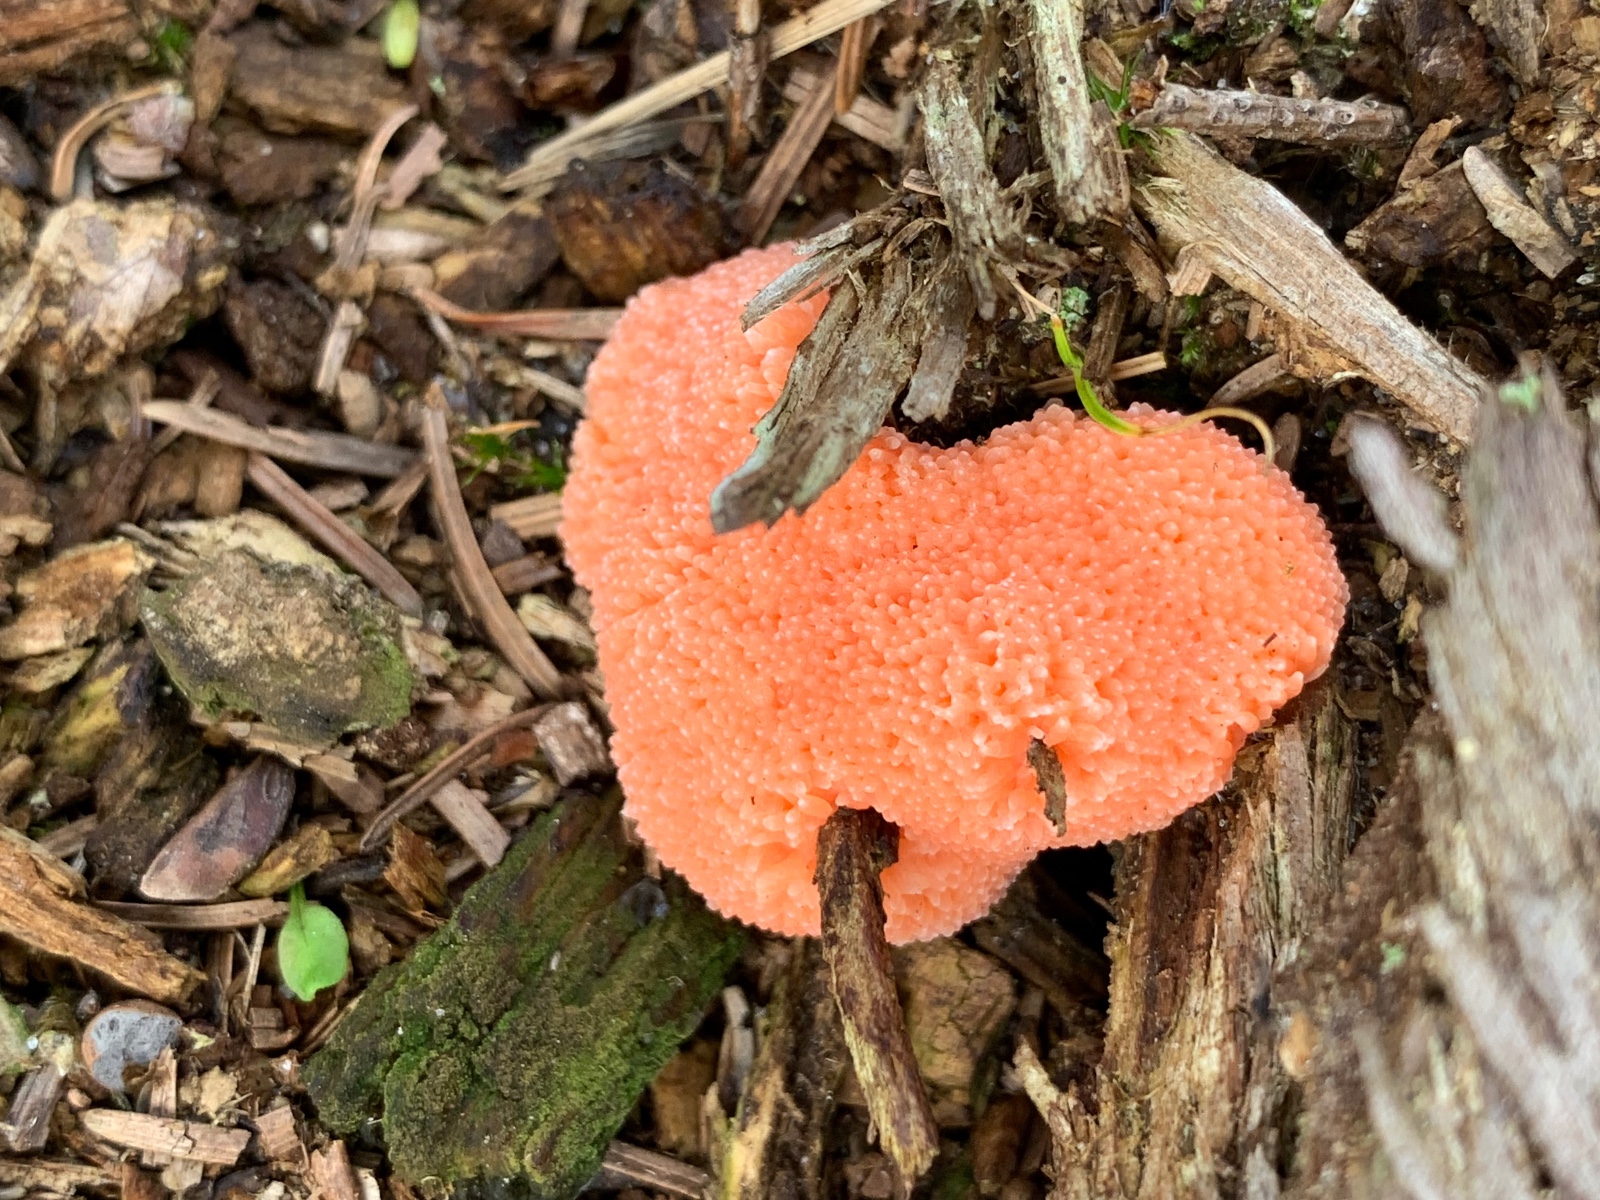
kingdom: Protozoa
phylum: Mycetozoa
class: Myxomycetes
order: Cribrariales
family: Tubiferaceae
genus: Tubifera
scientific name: Tubifera ferruginosa
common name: kanel-støvrør
